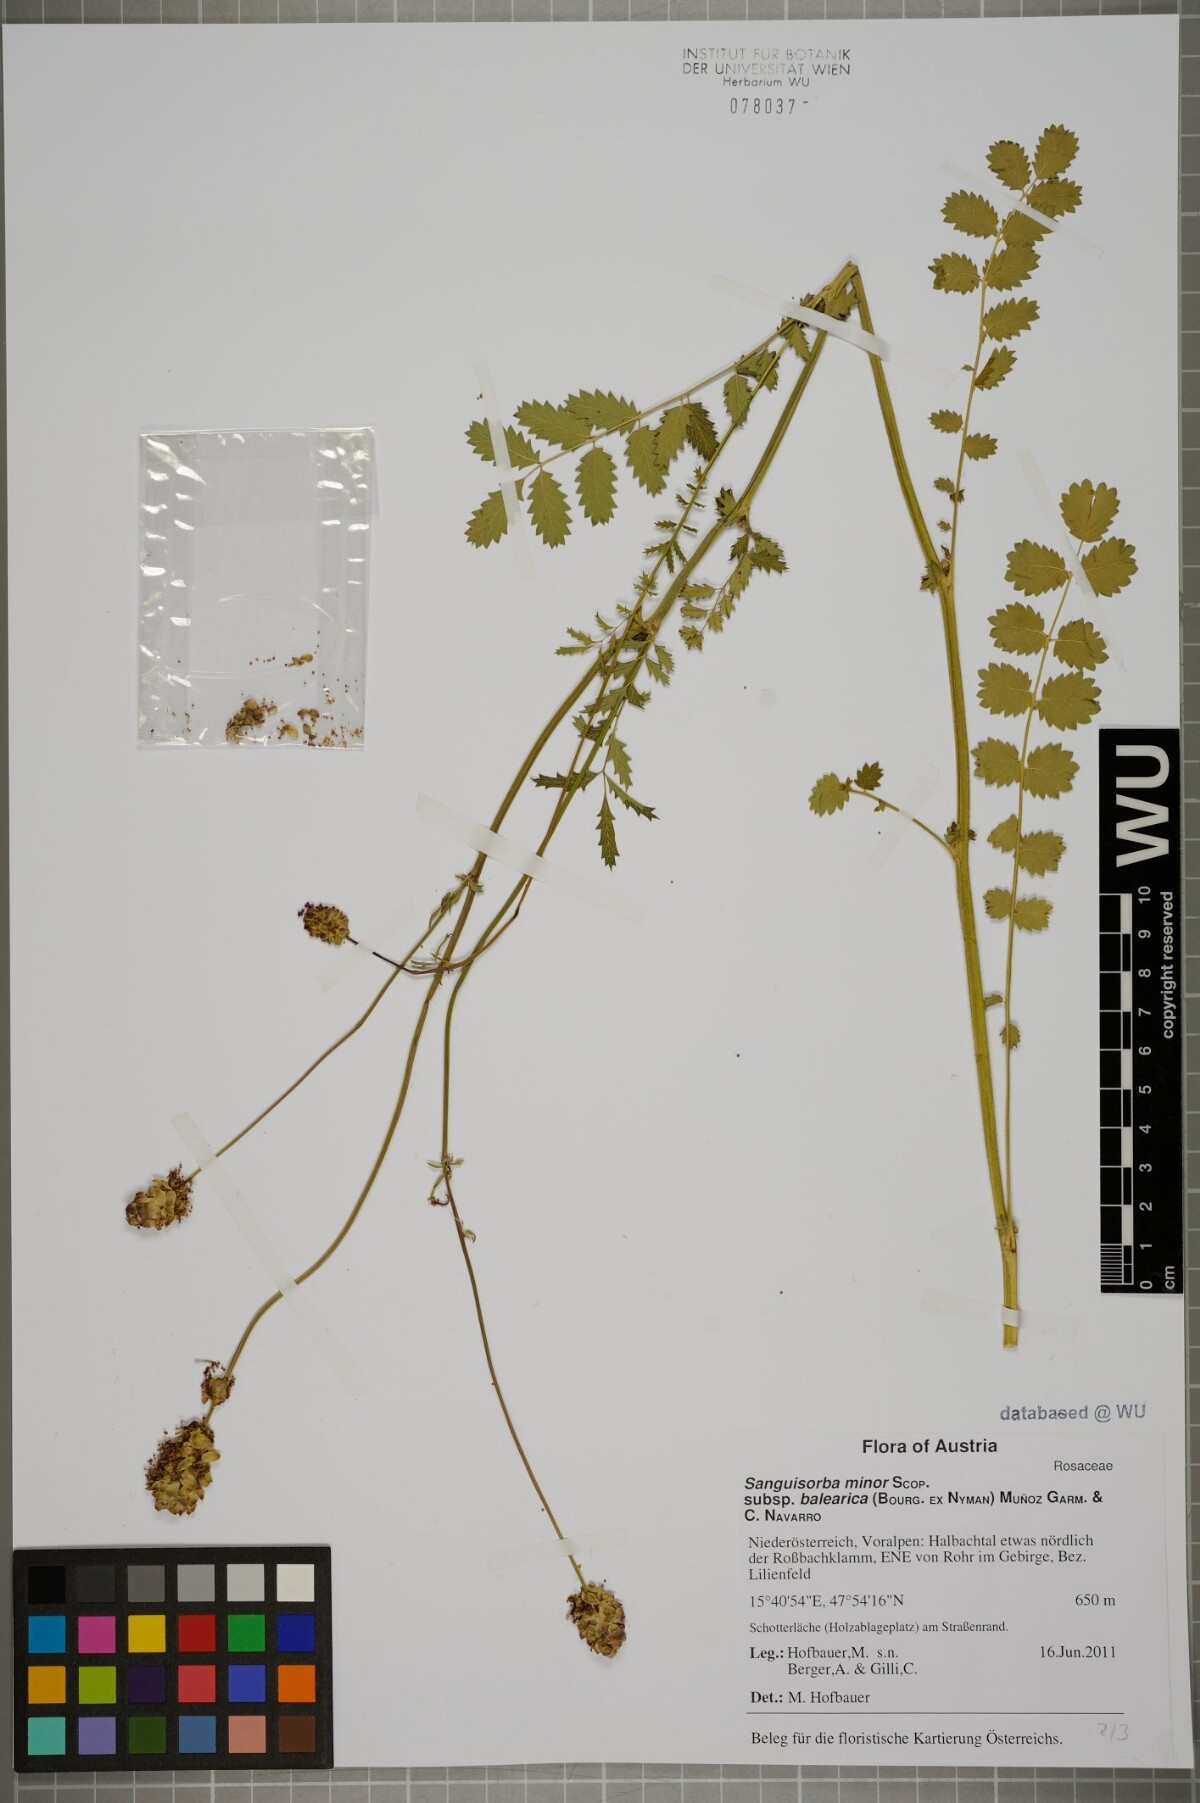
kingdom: Plantae
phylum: Tracheophyta
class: Magnoliopsida
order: Rosales
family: Rosaceae
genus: Poterium
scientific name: Poterium sanguisorba
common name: Salad burnet
